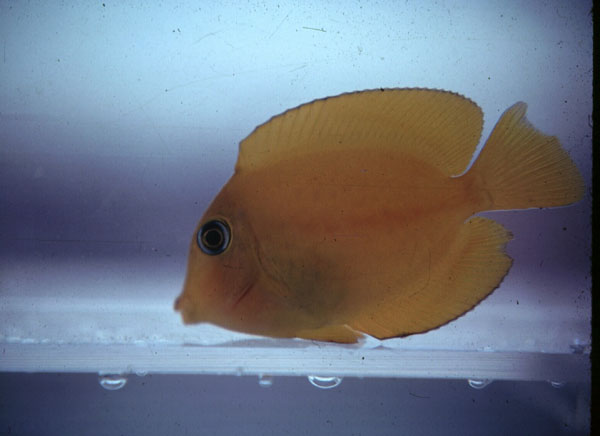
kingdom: Animalia
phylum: Chordata
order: Perciformes
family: Acanthuridae
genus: Ctenochaetus
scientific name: Ctenochaetus
